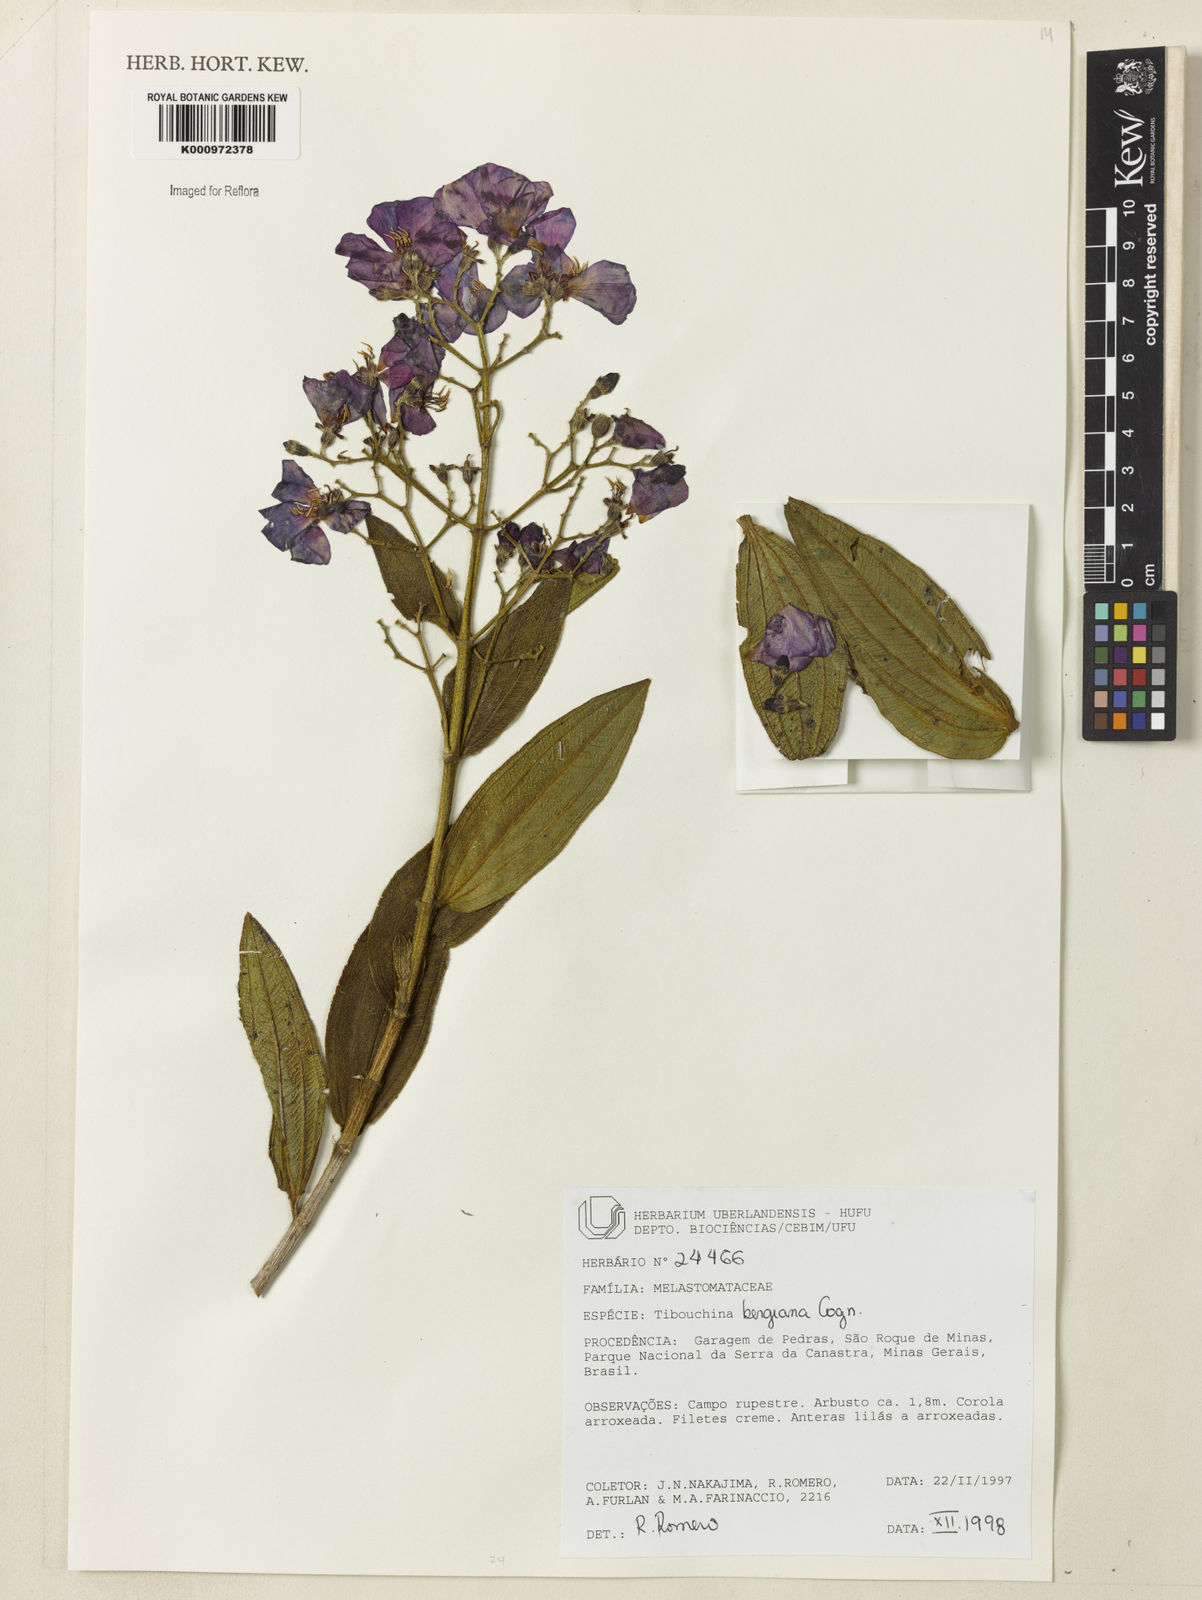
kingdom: Plantae
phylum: Tracheophyta
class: Magnoliopsida
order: Myrtales
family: Melastomataceae
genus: Pleroma
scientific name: Pleroma bergianum
